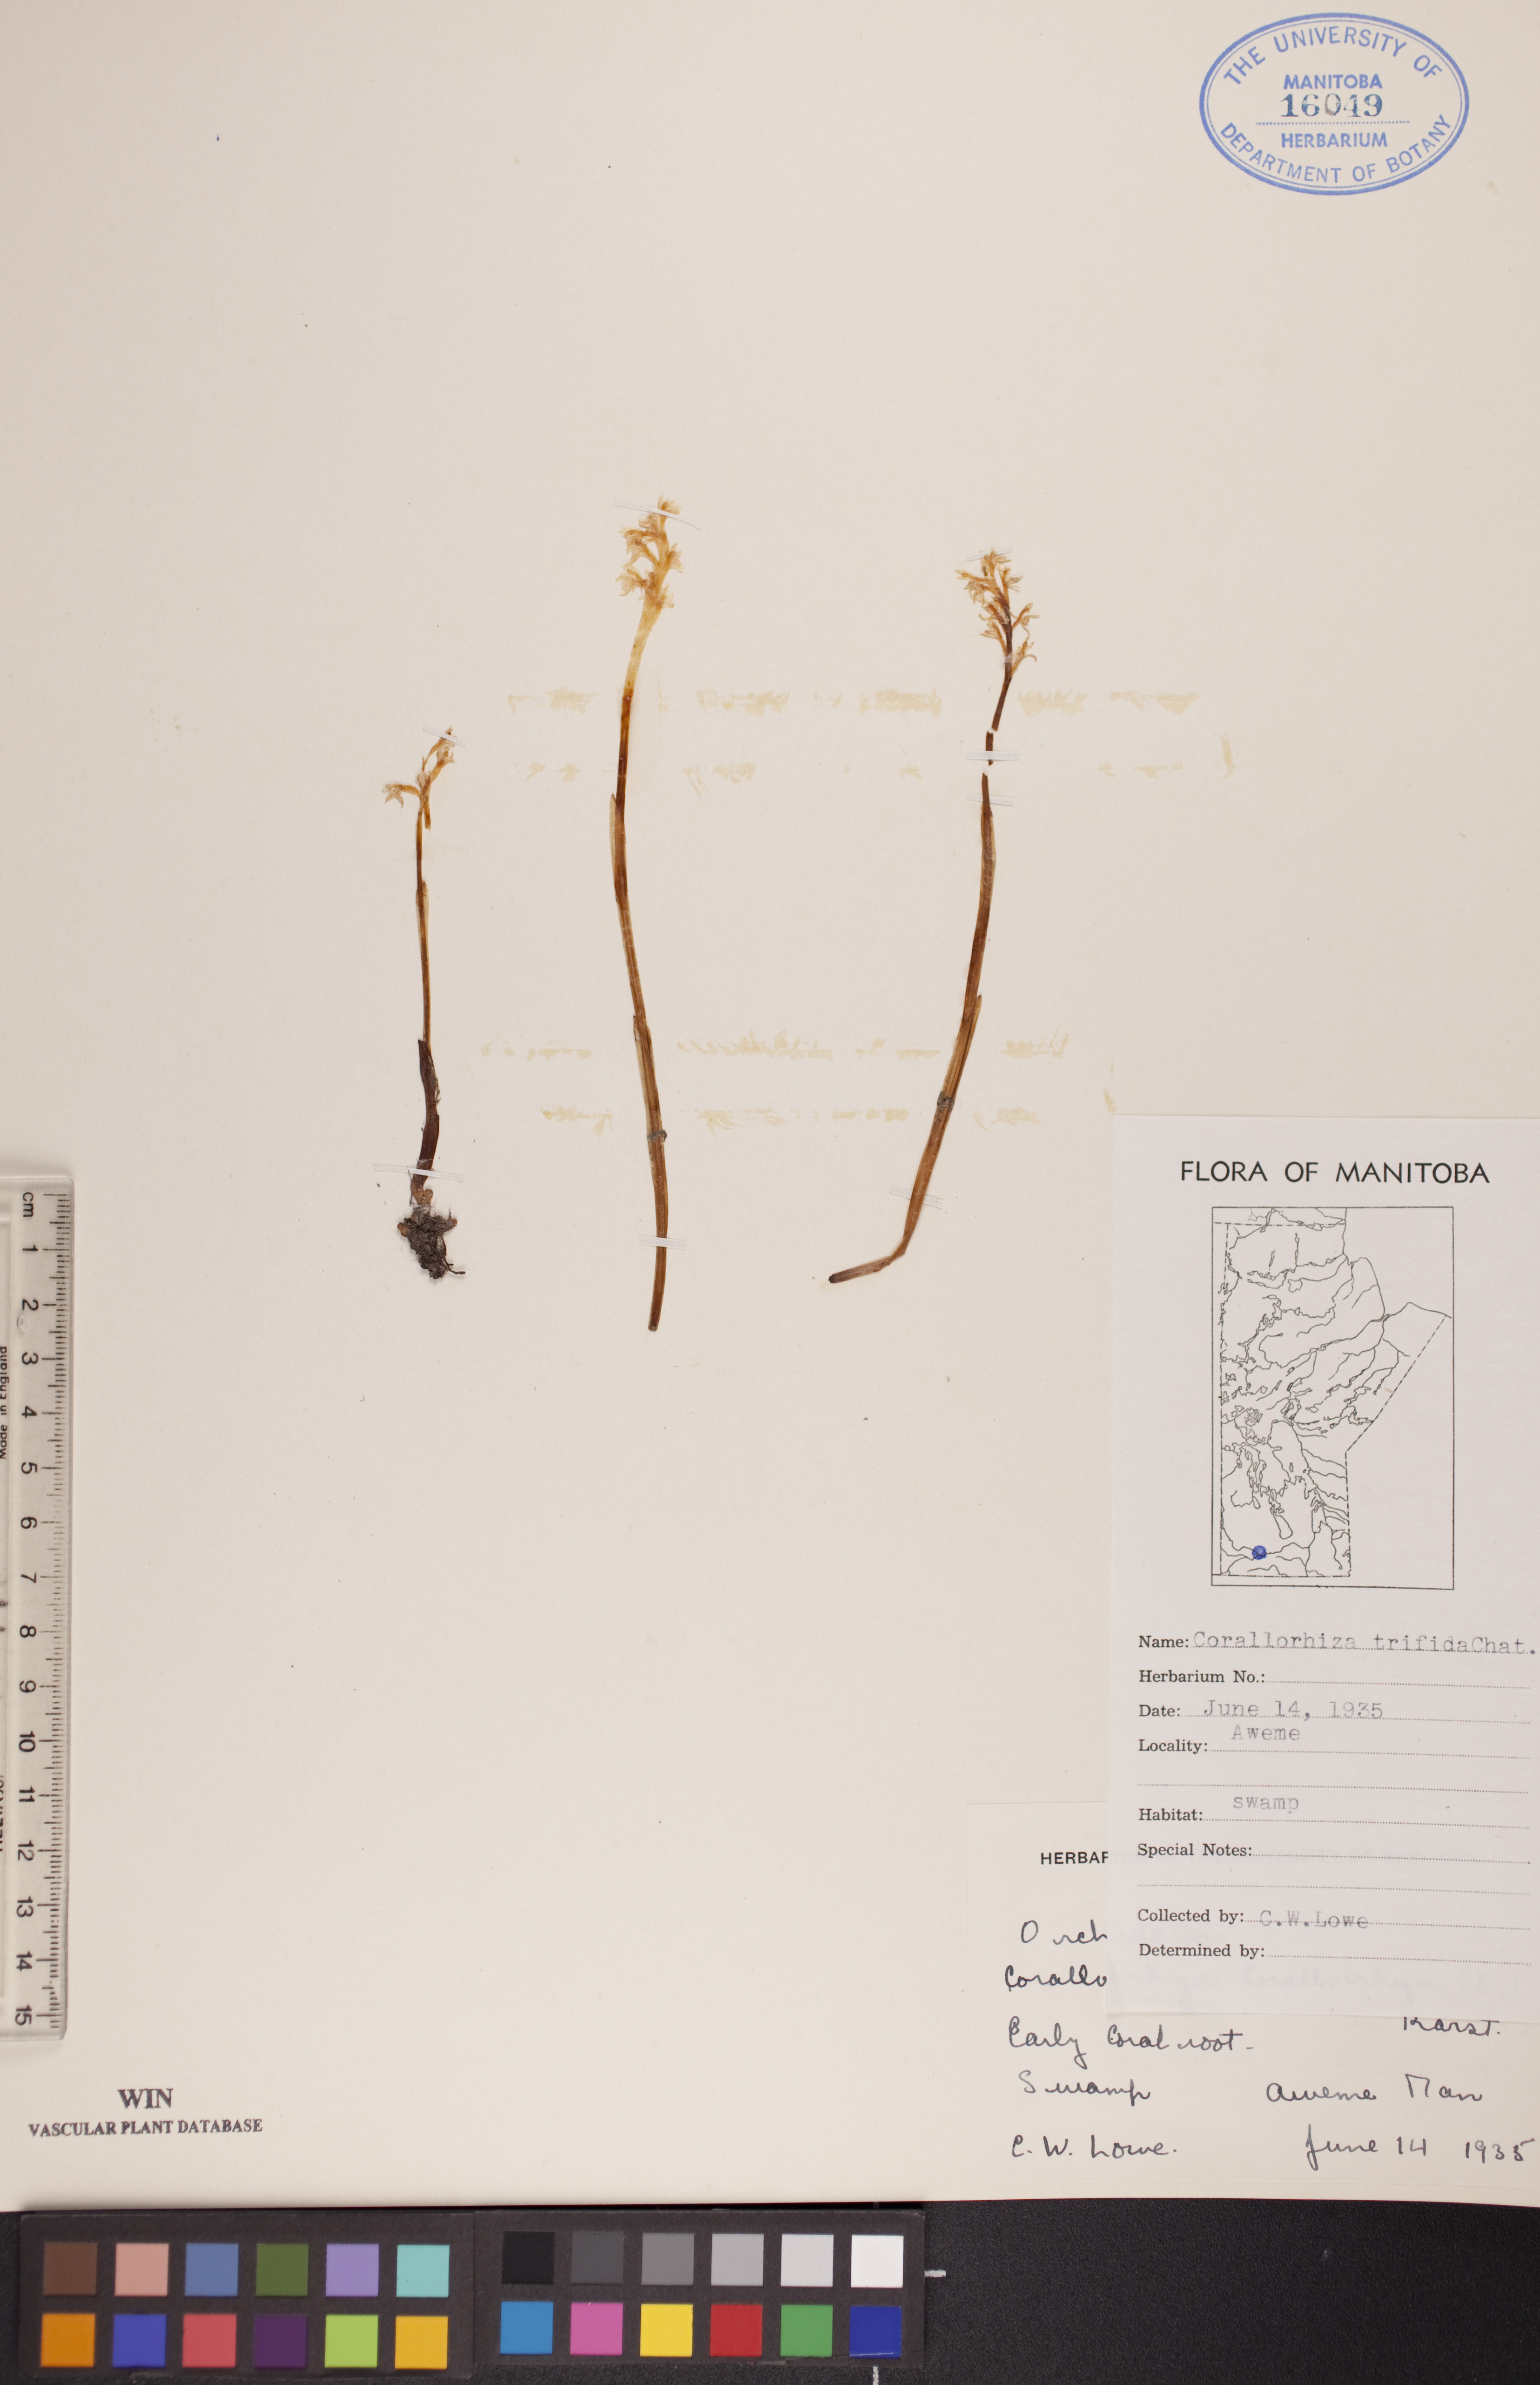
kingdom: Plantae
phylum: Tracheophyta
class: Liliopsida
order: Asparagales
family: Orchidaceae
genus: Corallorhiza
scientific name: Corallorhiza trifida
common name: Yellow coralroot
